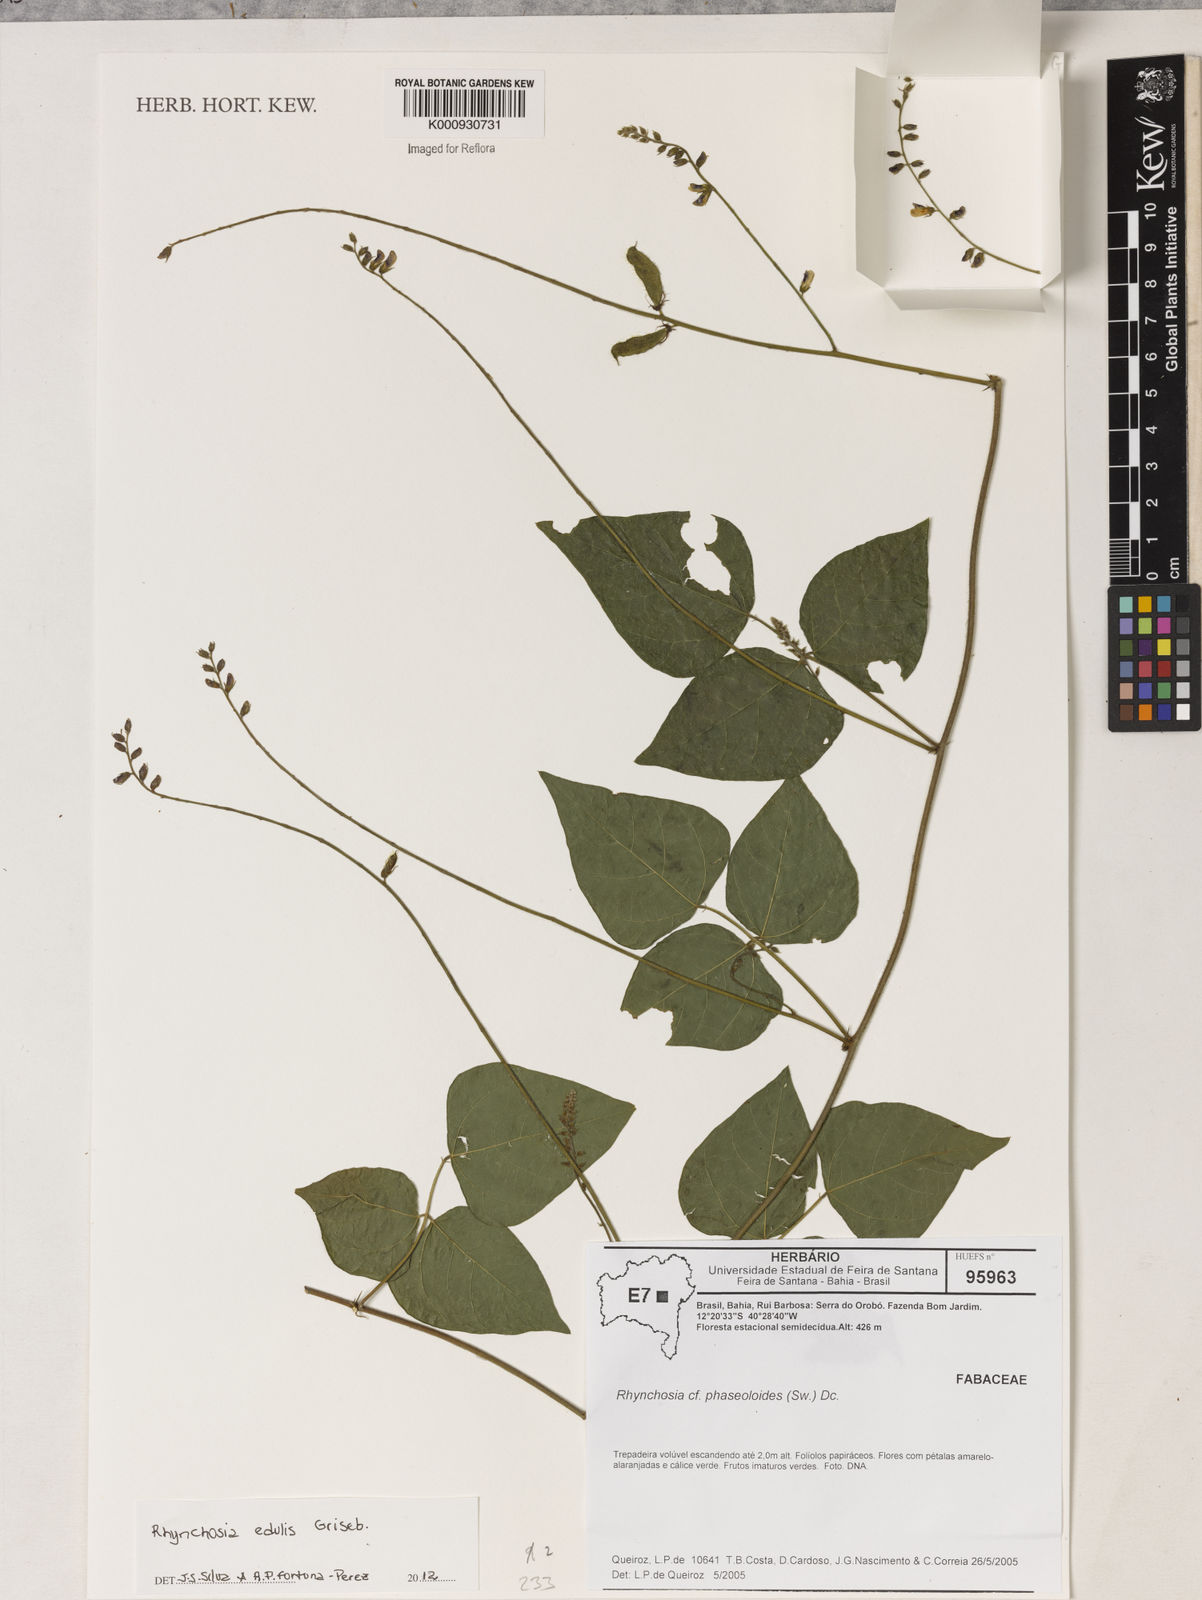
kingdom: Plantae
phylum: Tracheophyta
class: Magnoliopsida
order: Fabales
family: Fabaceae
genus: Rhynchosia
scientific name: Rhynchosia edulis
